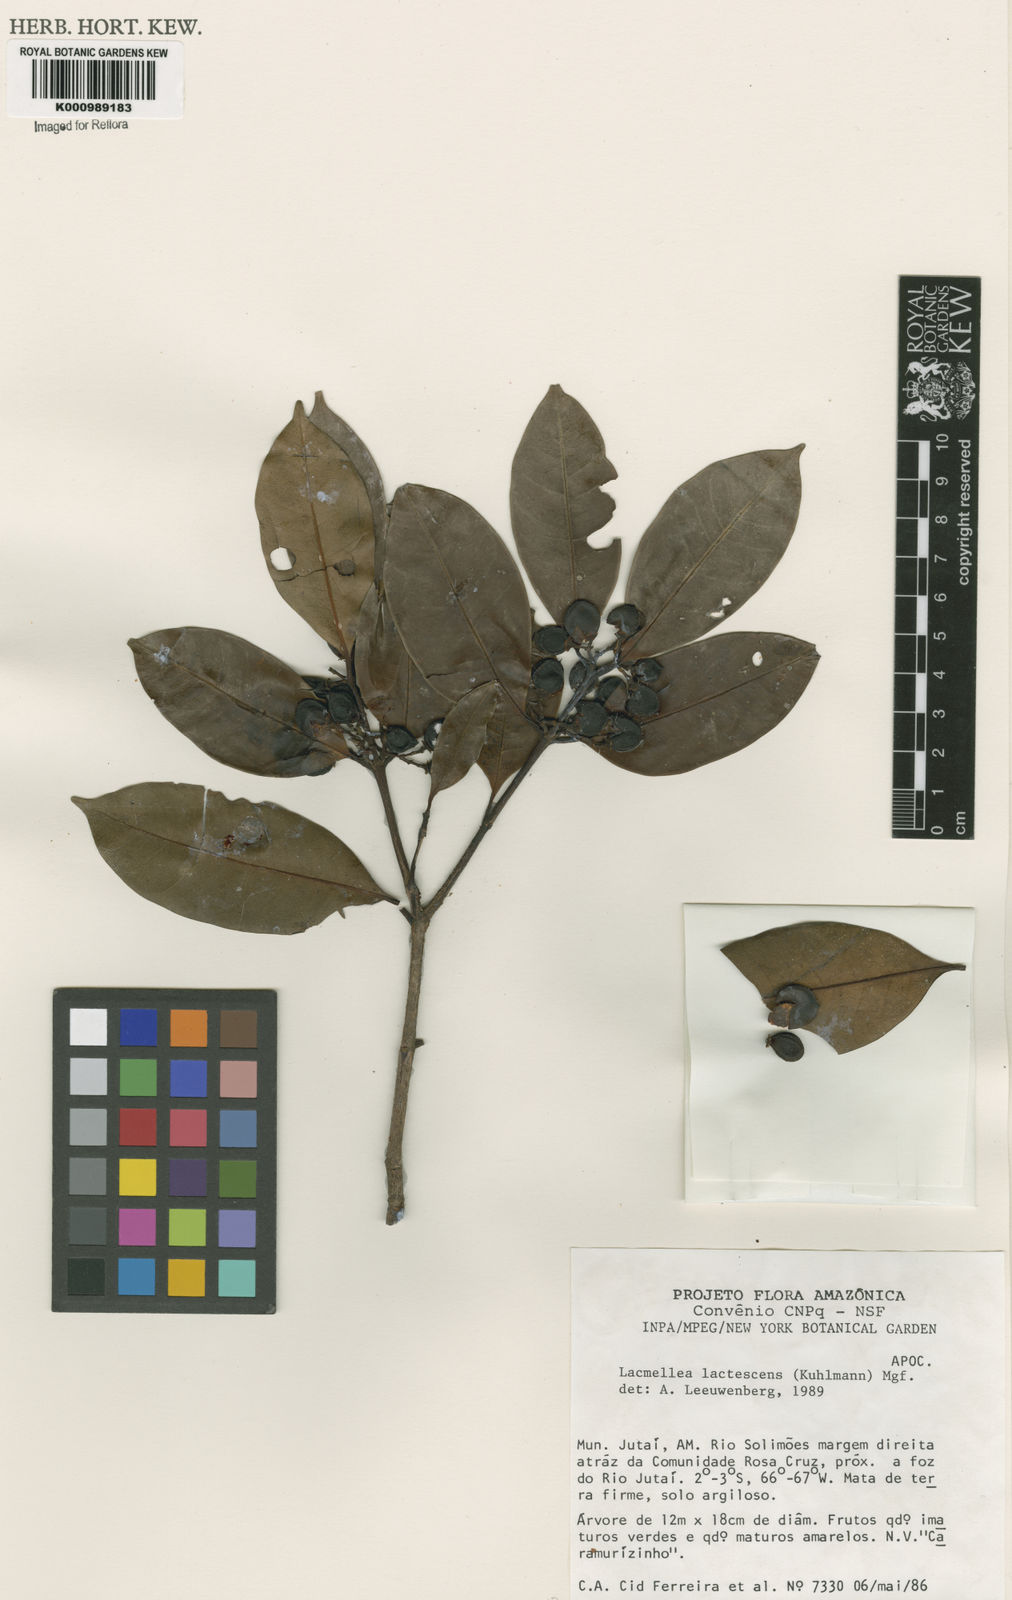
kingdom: Plantae
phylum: Tracheophyta
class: Magnoliopsida
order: Gentianales
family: Apocynaceae
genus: Lacmellea
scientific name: Lacmellea
